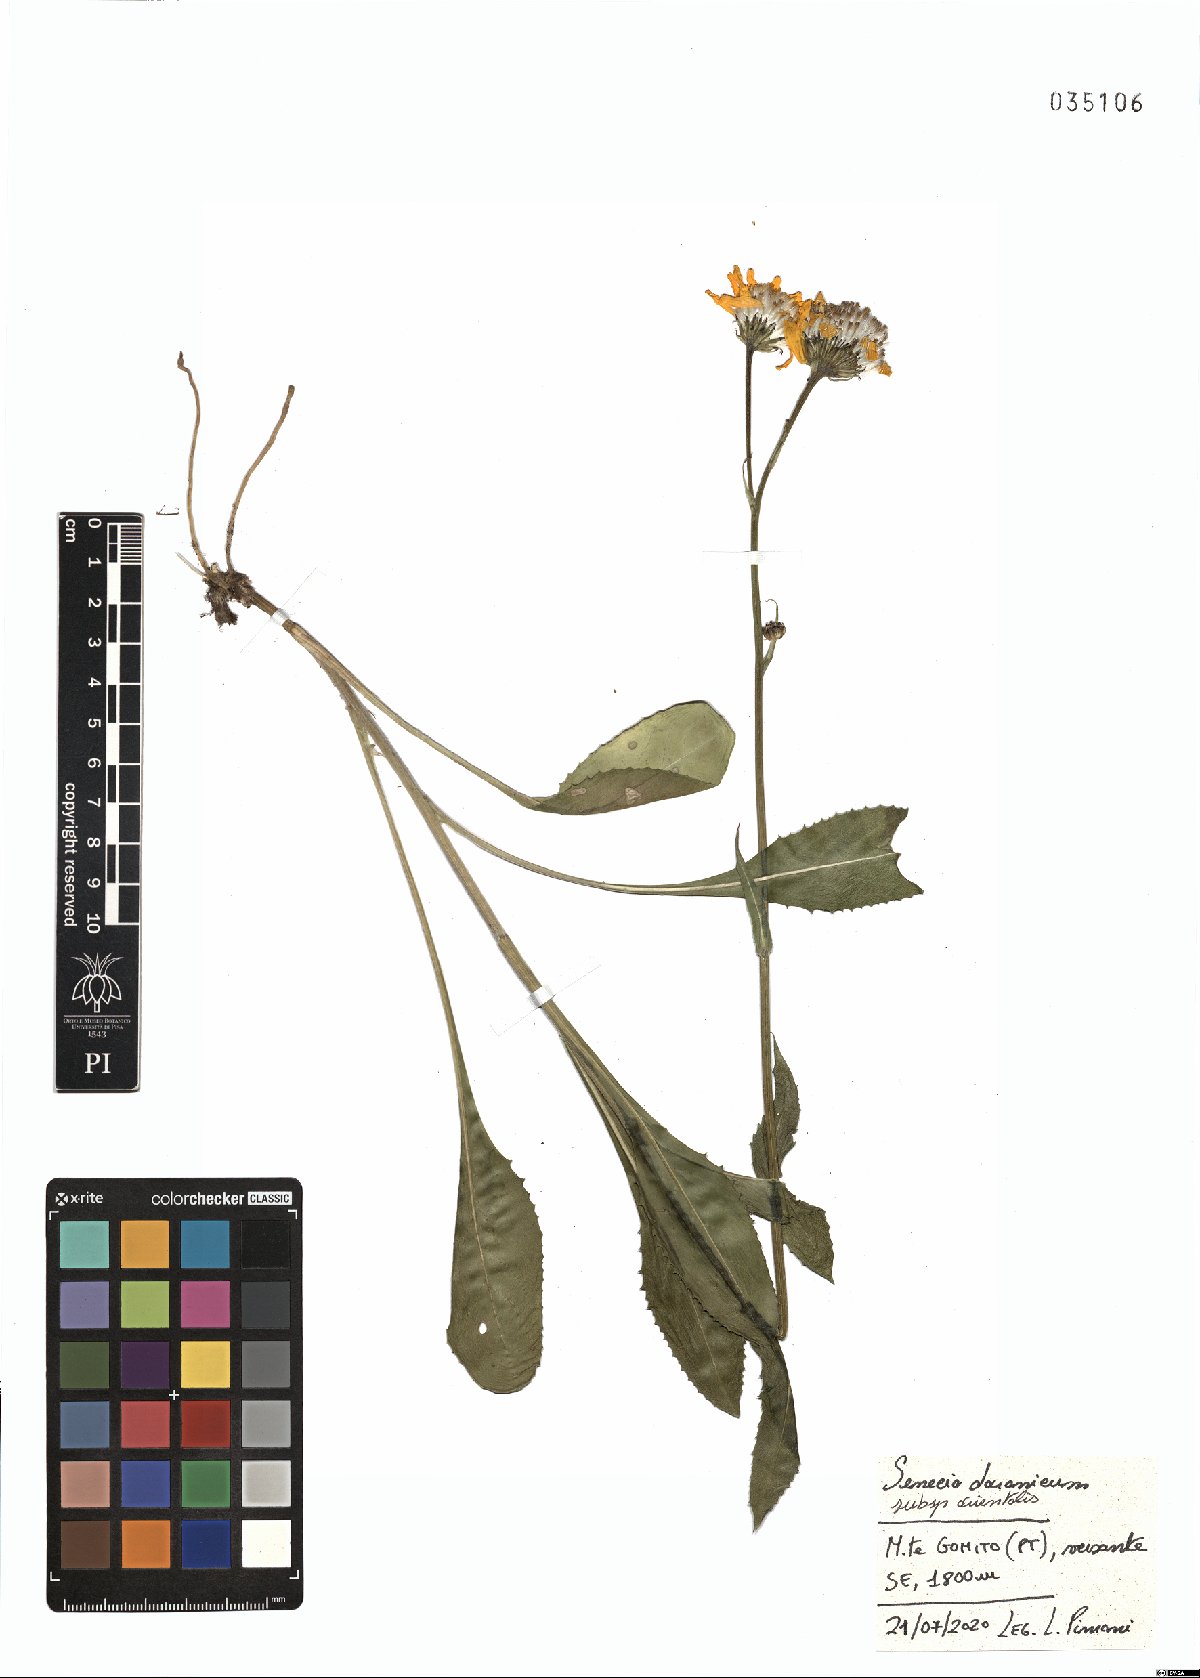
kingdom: Plantae
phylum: Tracheophyta
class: Magnoliopsida
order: Asterales
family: Asteraceae
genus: Senecio
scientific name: Senecio doronicum
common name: Chamois ragwort
